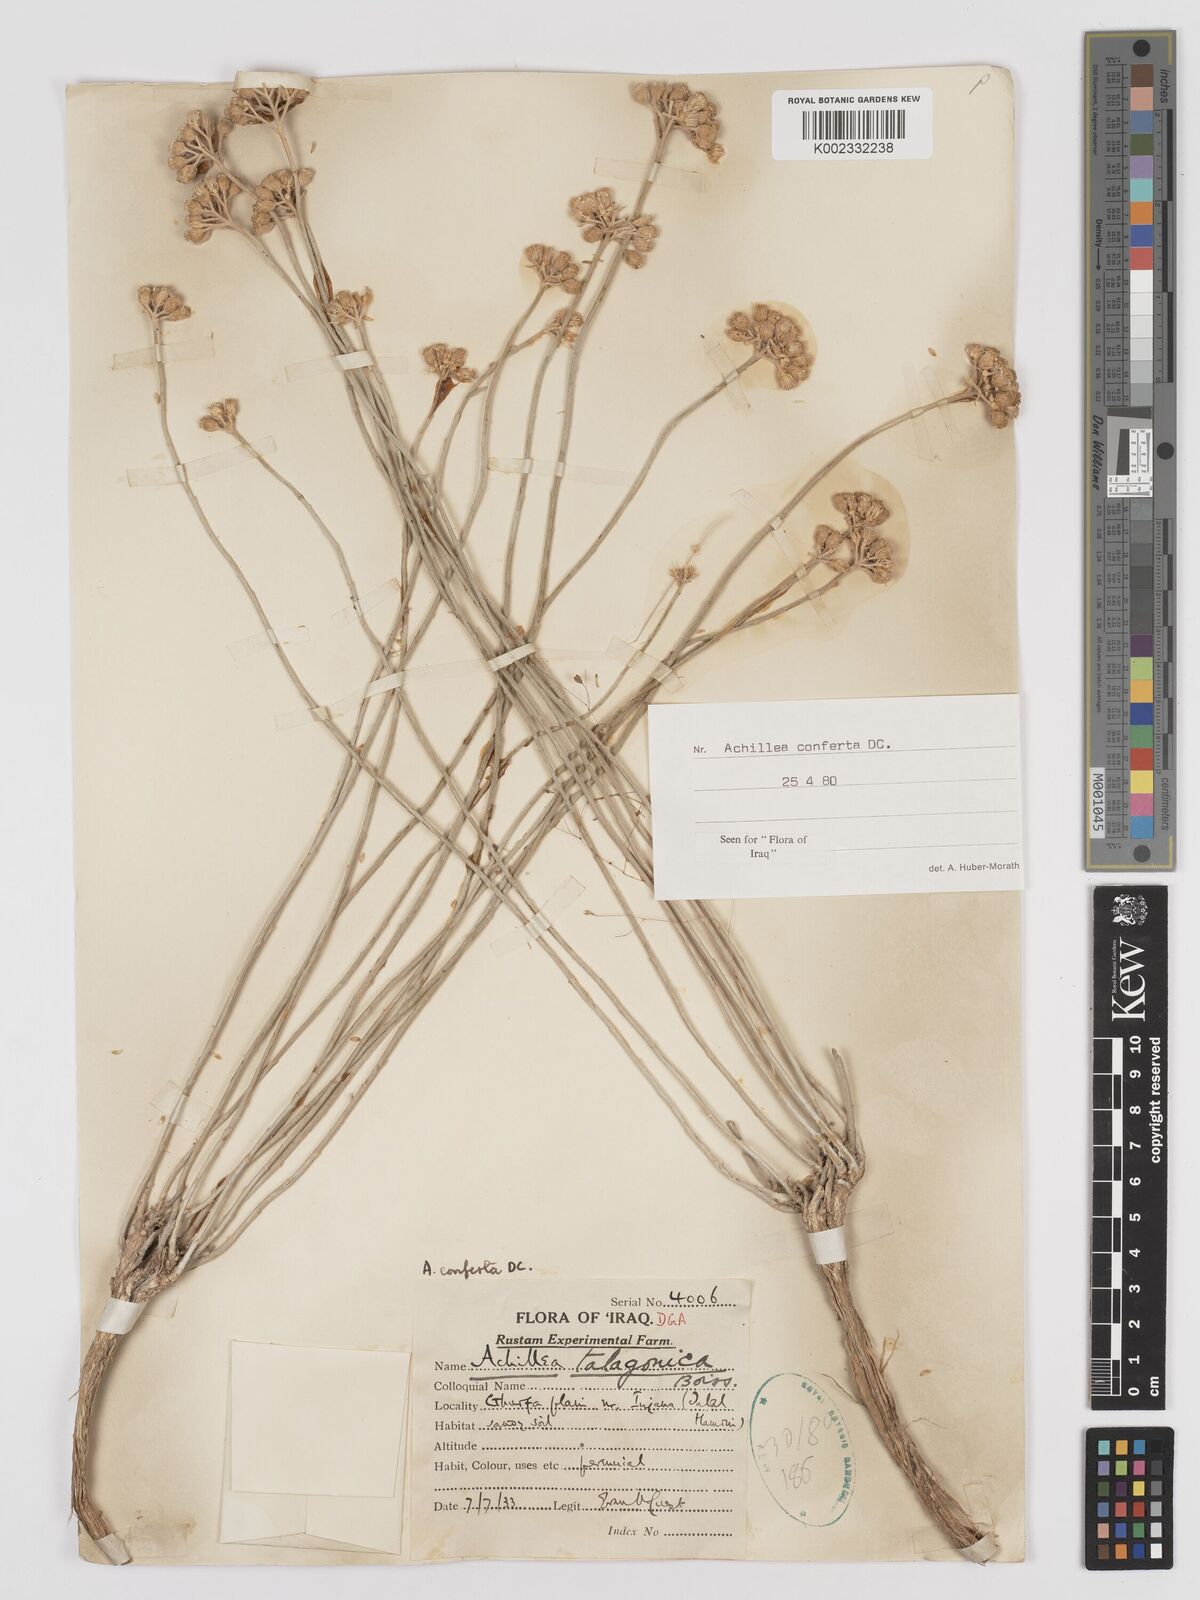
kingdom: Plantae
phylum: Tracheophyta
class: Magnoliopsida
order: Asterales
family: Asteraceae
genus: Achillea
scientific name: Achillea conferta
